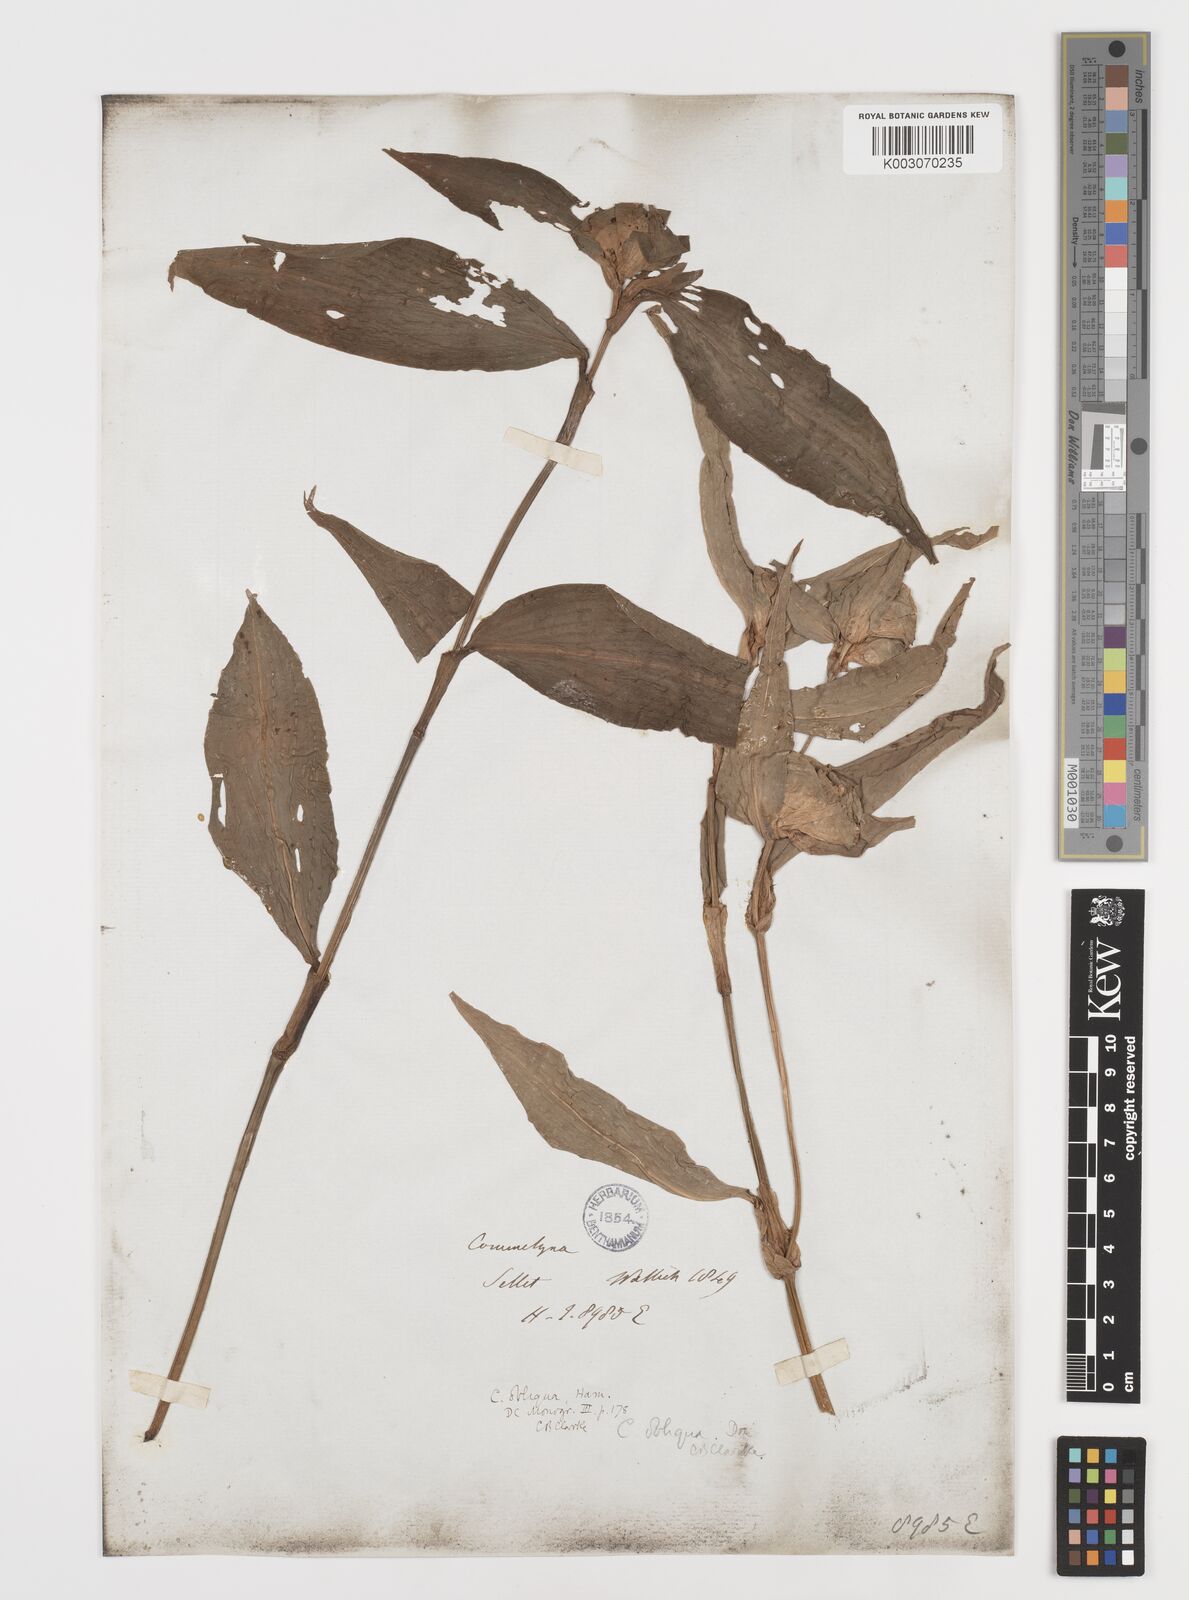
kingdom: Plantae
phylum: Tracheophyta
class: Liliopsida
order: Commelinales
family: Commelinaceae
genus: Commelina
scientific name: Commelina paludosa
